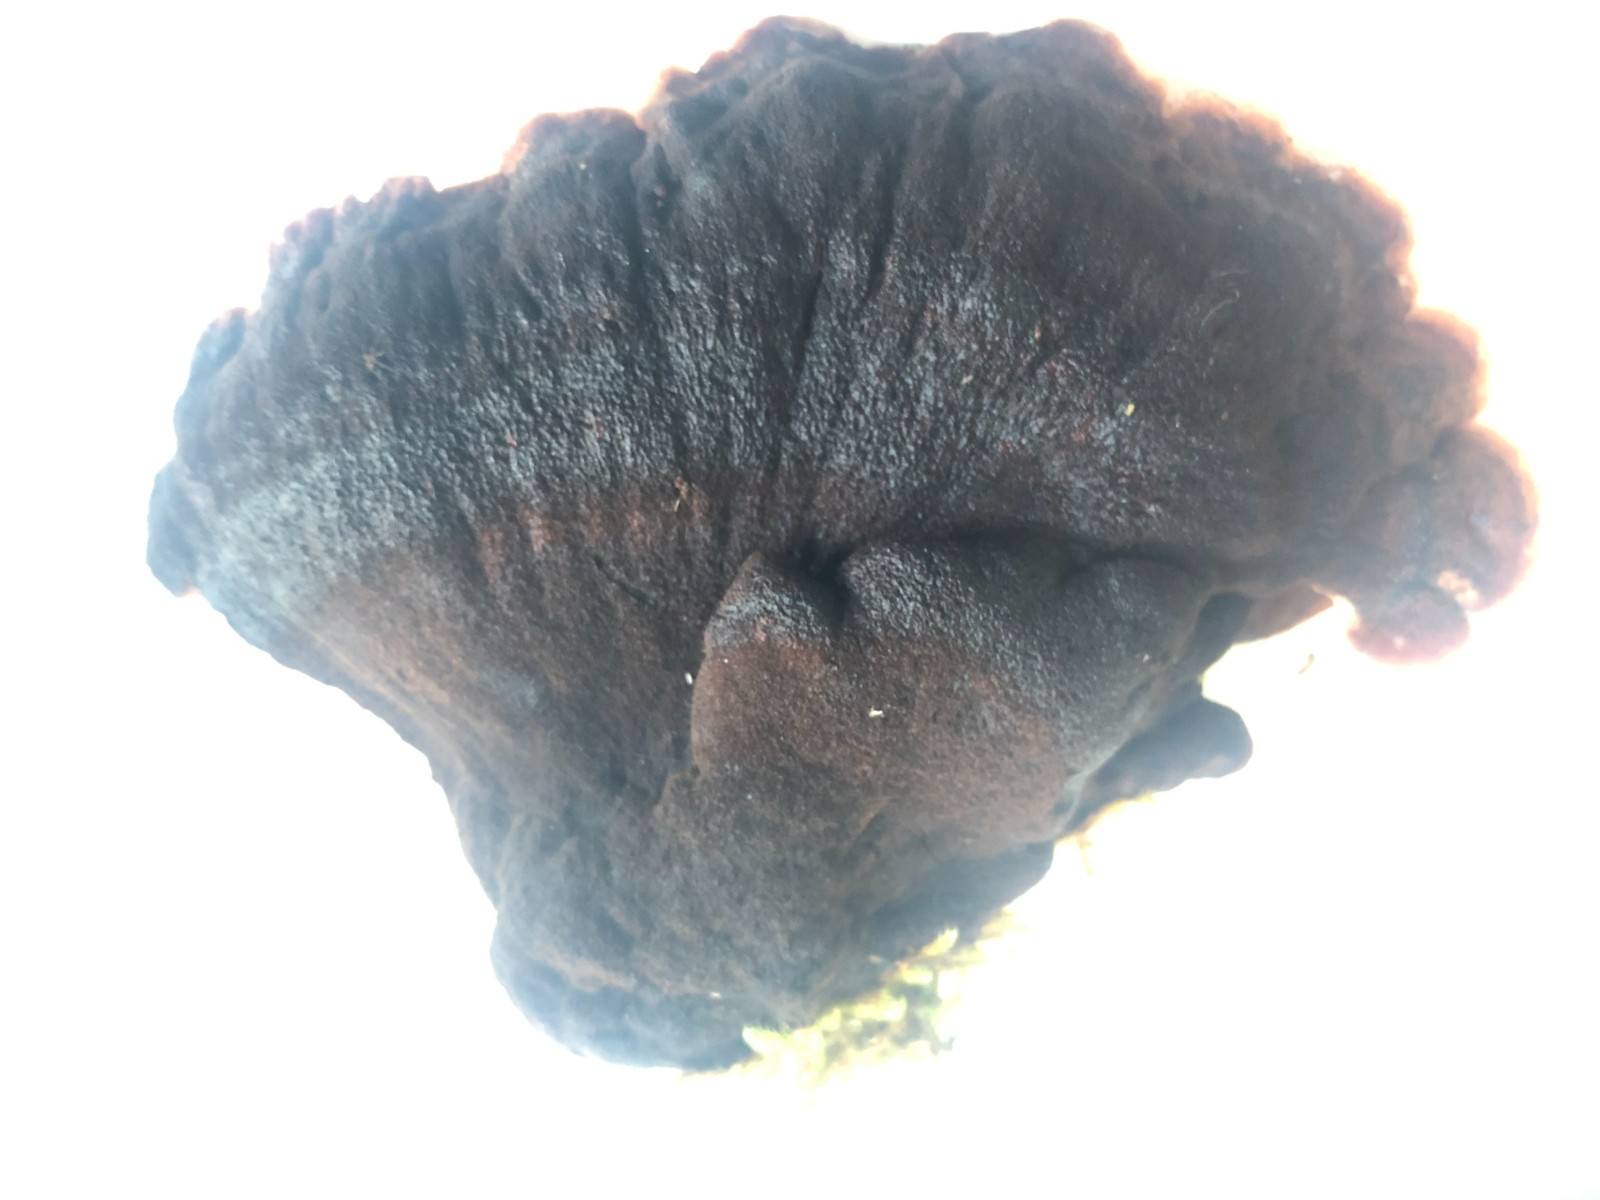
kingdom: Fungi
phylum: Basidiomycota
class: Agaricomycetes
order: Polyporales
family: Ischnodermataceae
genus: Ischnoderma
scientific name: Ischnoderma benzoinum
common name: gran-tjæreporesvamp
